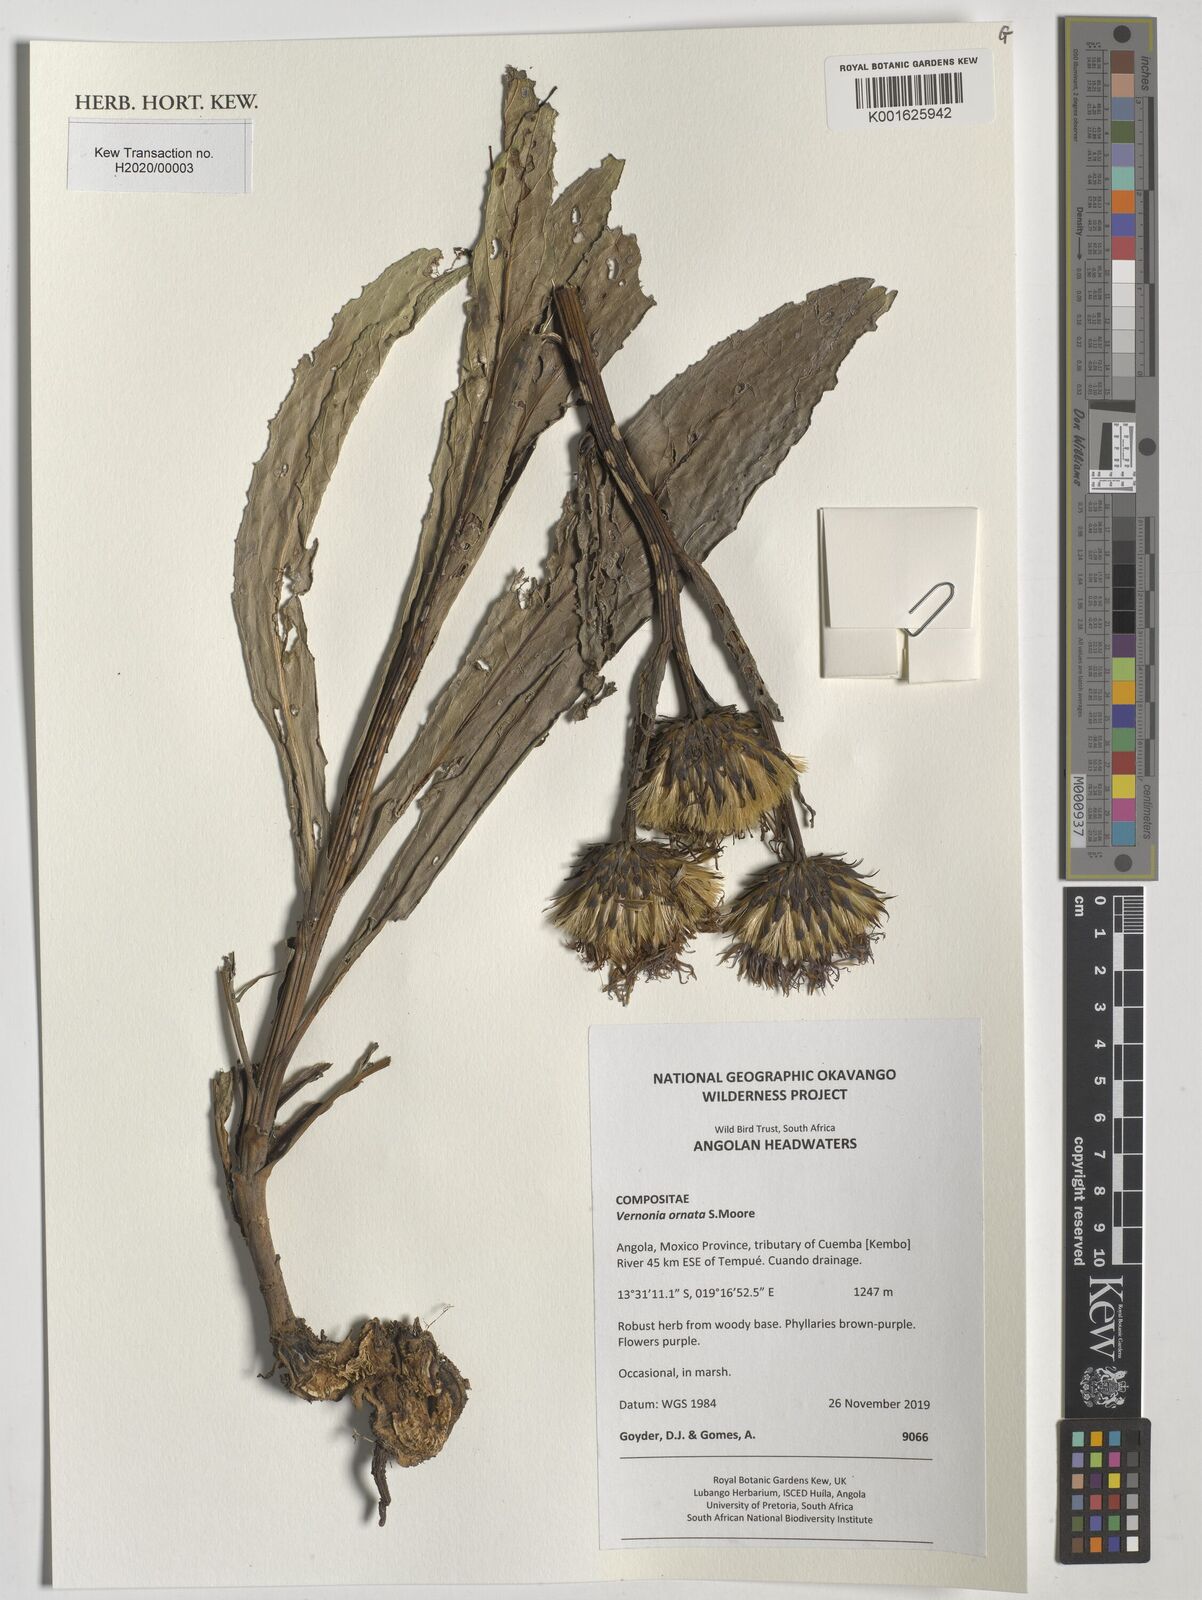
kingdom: Plantae
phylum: Tracheophyta
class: Magnoliopsida
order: Asterales
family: Asteraceae
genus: Vernonia
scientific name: Vernonia ornata
